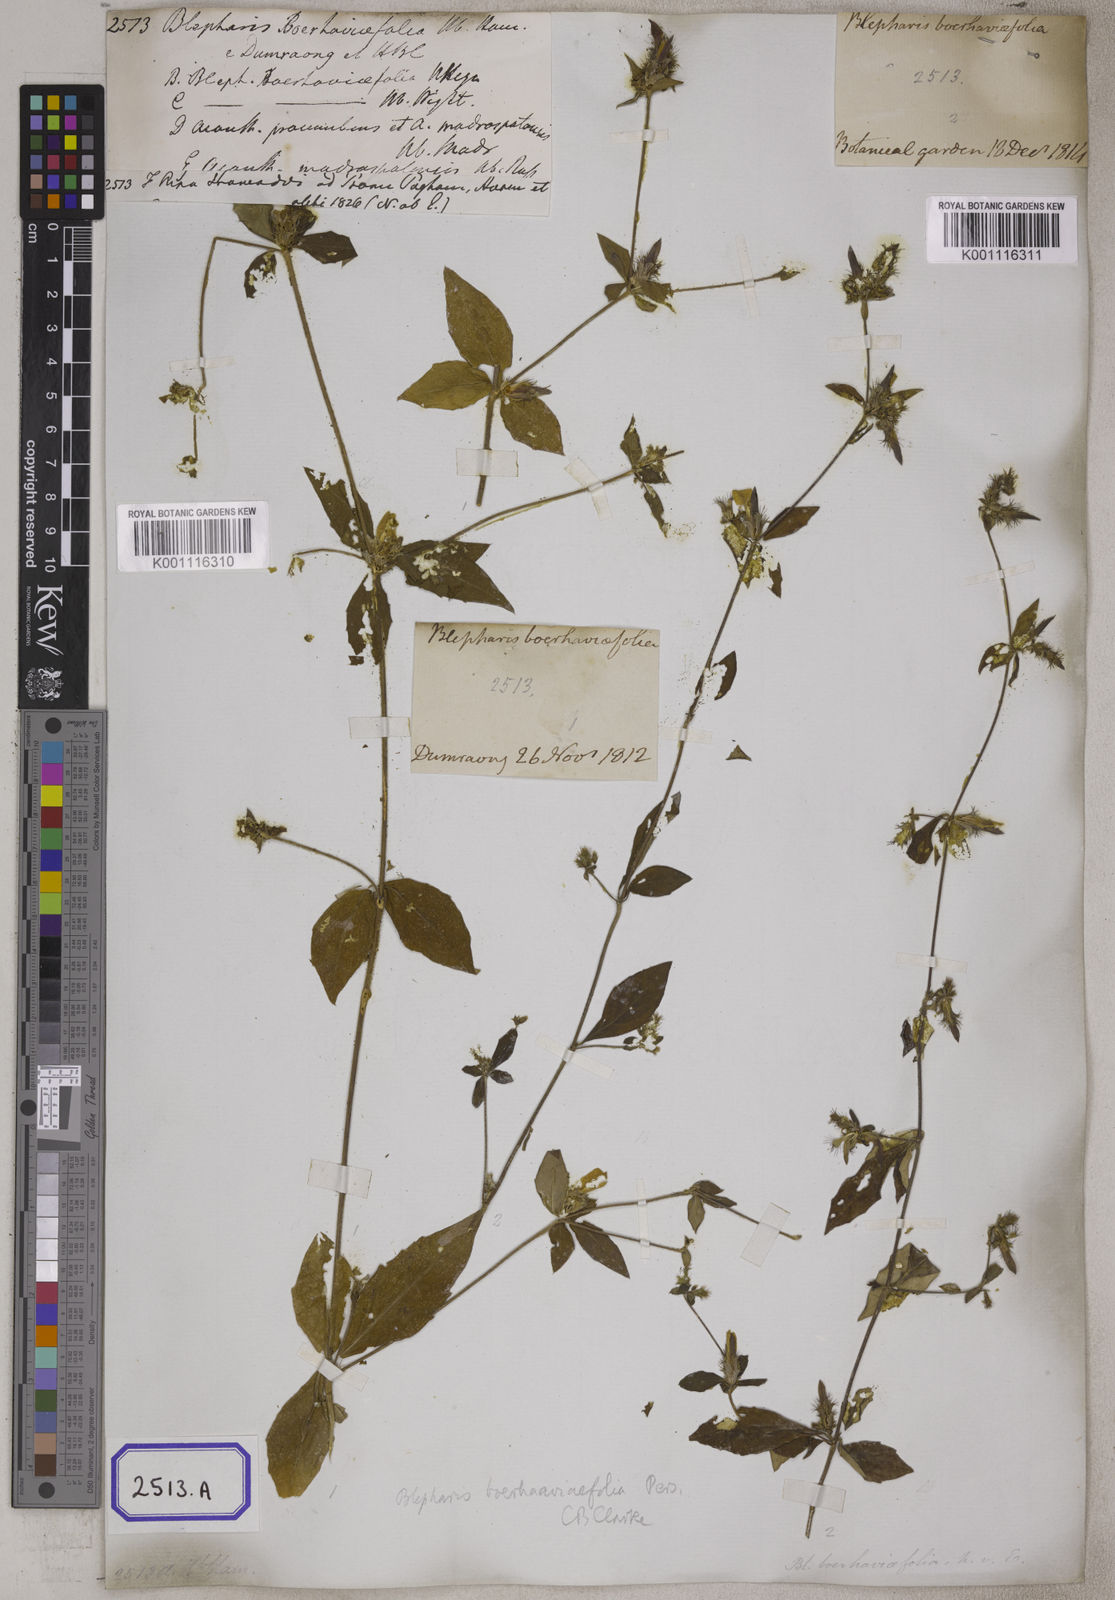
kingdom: Plantae
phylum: Tracheophyta
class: Magnoliopsida
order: Lamiales
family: Acanthaceae
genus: Blepharis
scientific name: Blepharis
